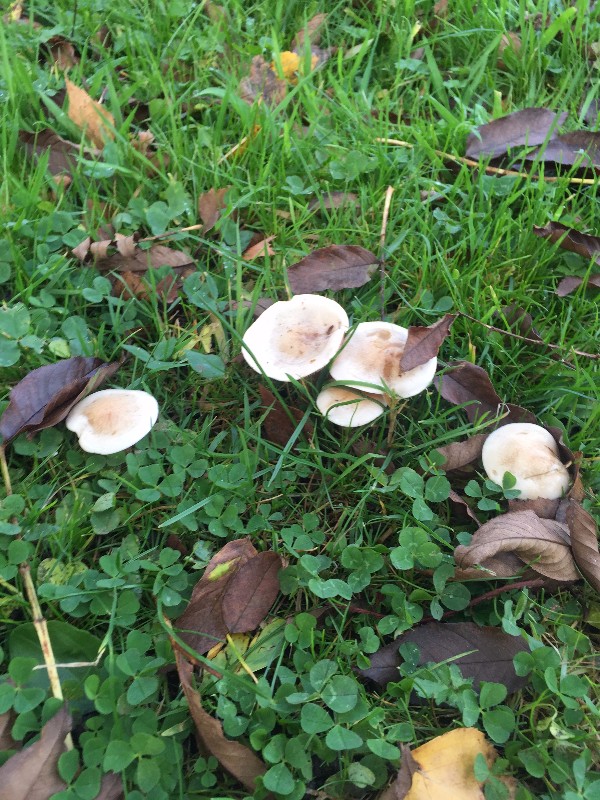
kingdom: Fungi
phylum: Basidiomycota
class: Agaricomycetes
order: Agaricales
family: Hymenogastraceae
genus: Hebeloma
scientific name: Hebeloma
